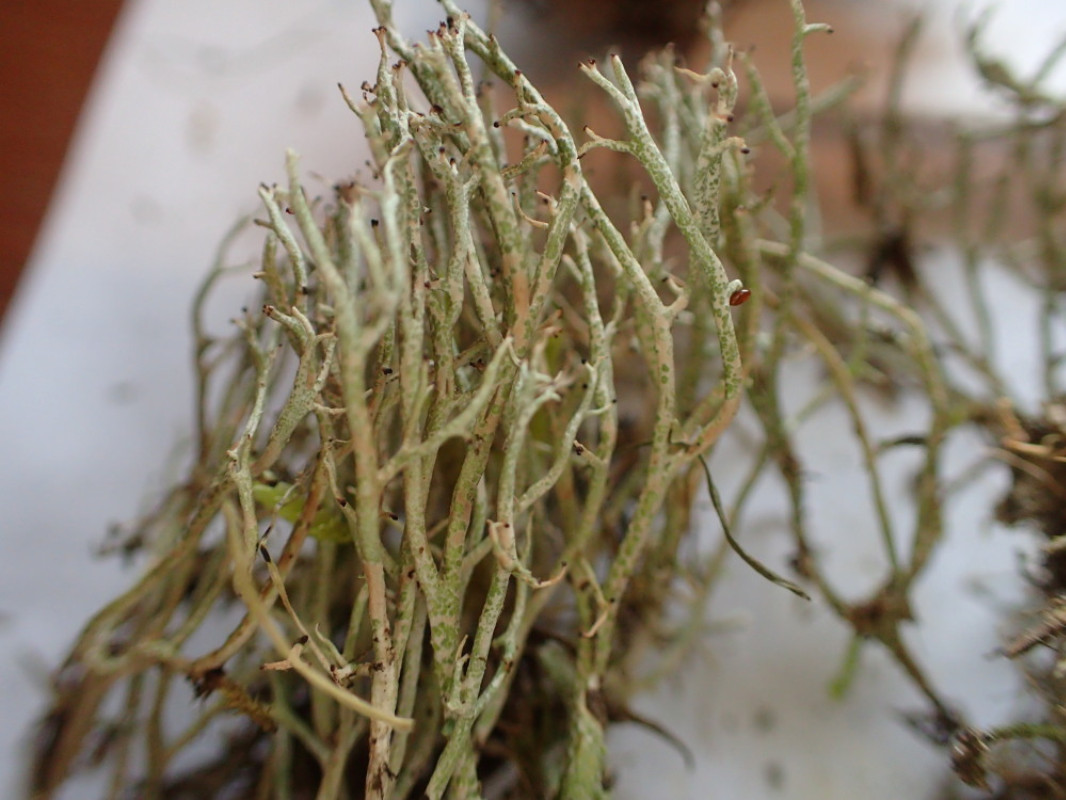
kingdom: Fungi
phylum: Ascomycota
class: Lecanoromycetes
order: Lecanorales
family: Cladoniaceae
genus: Cladonia
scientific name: Cladonia rangiformis
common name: spættet bægerlav
